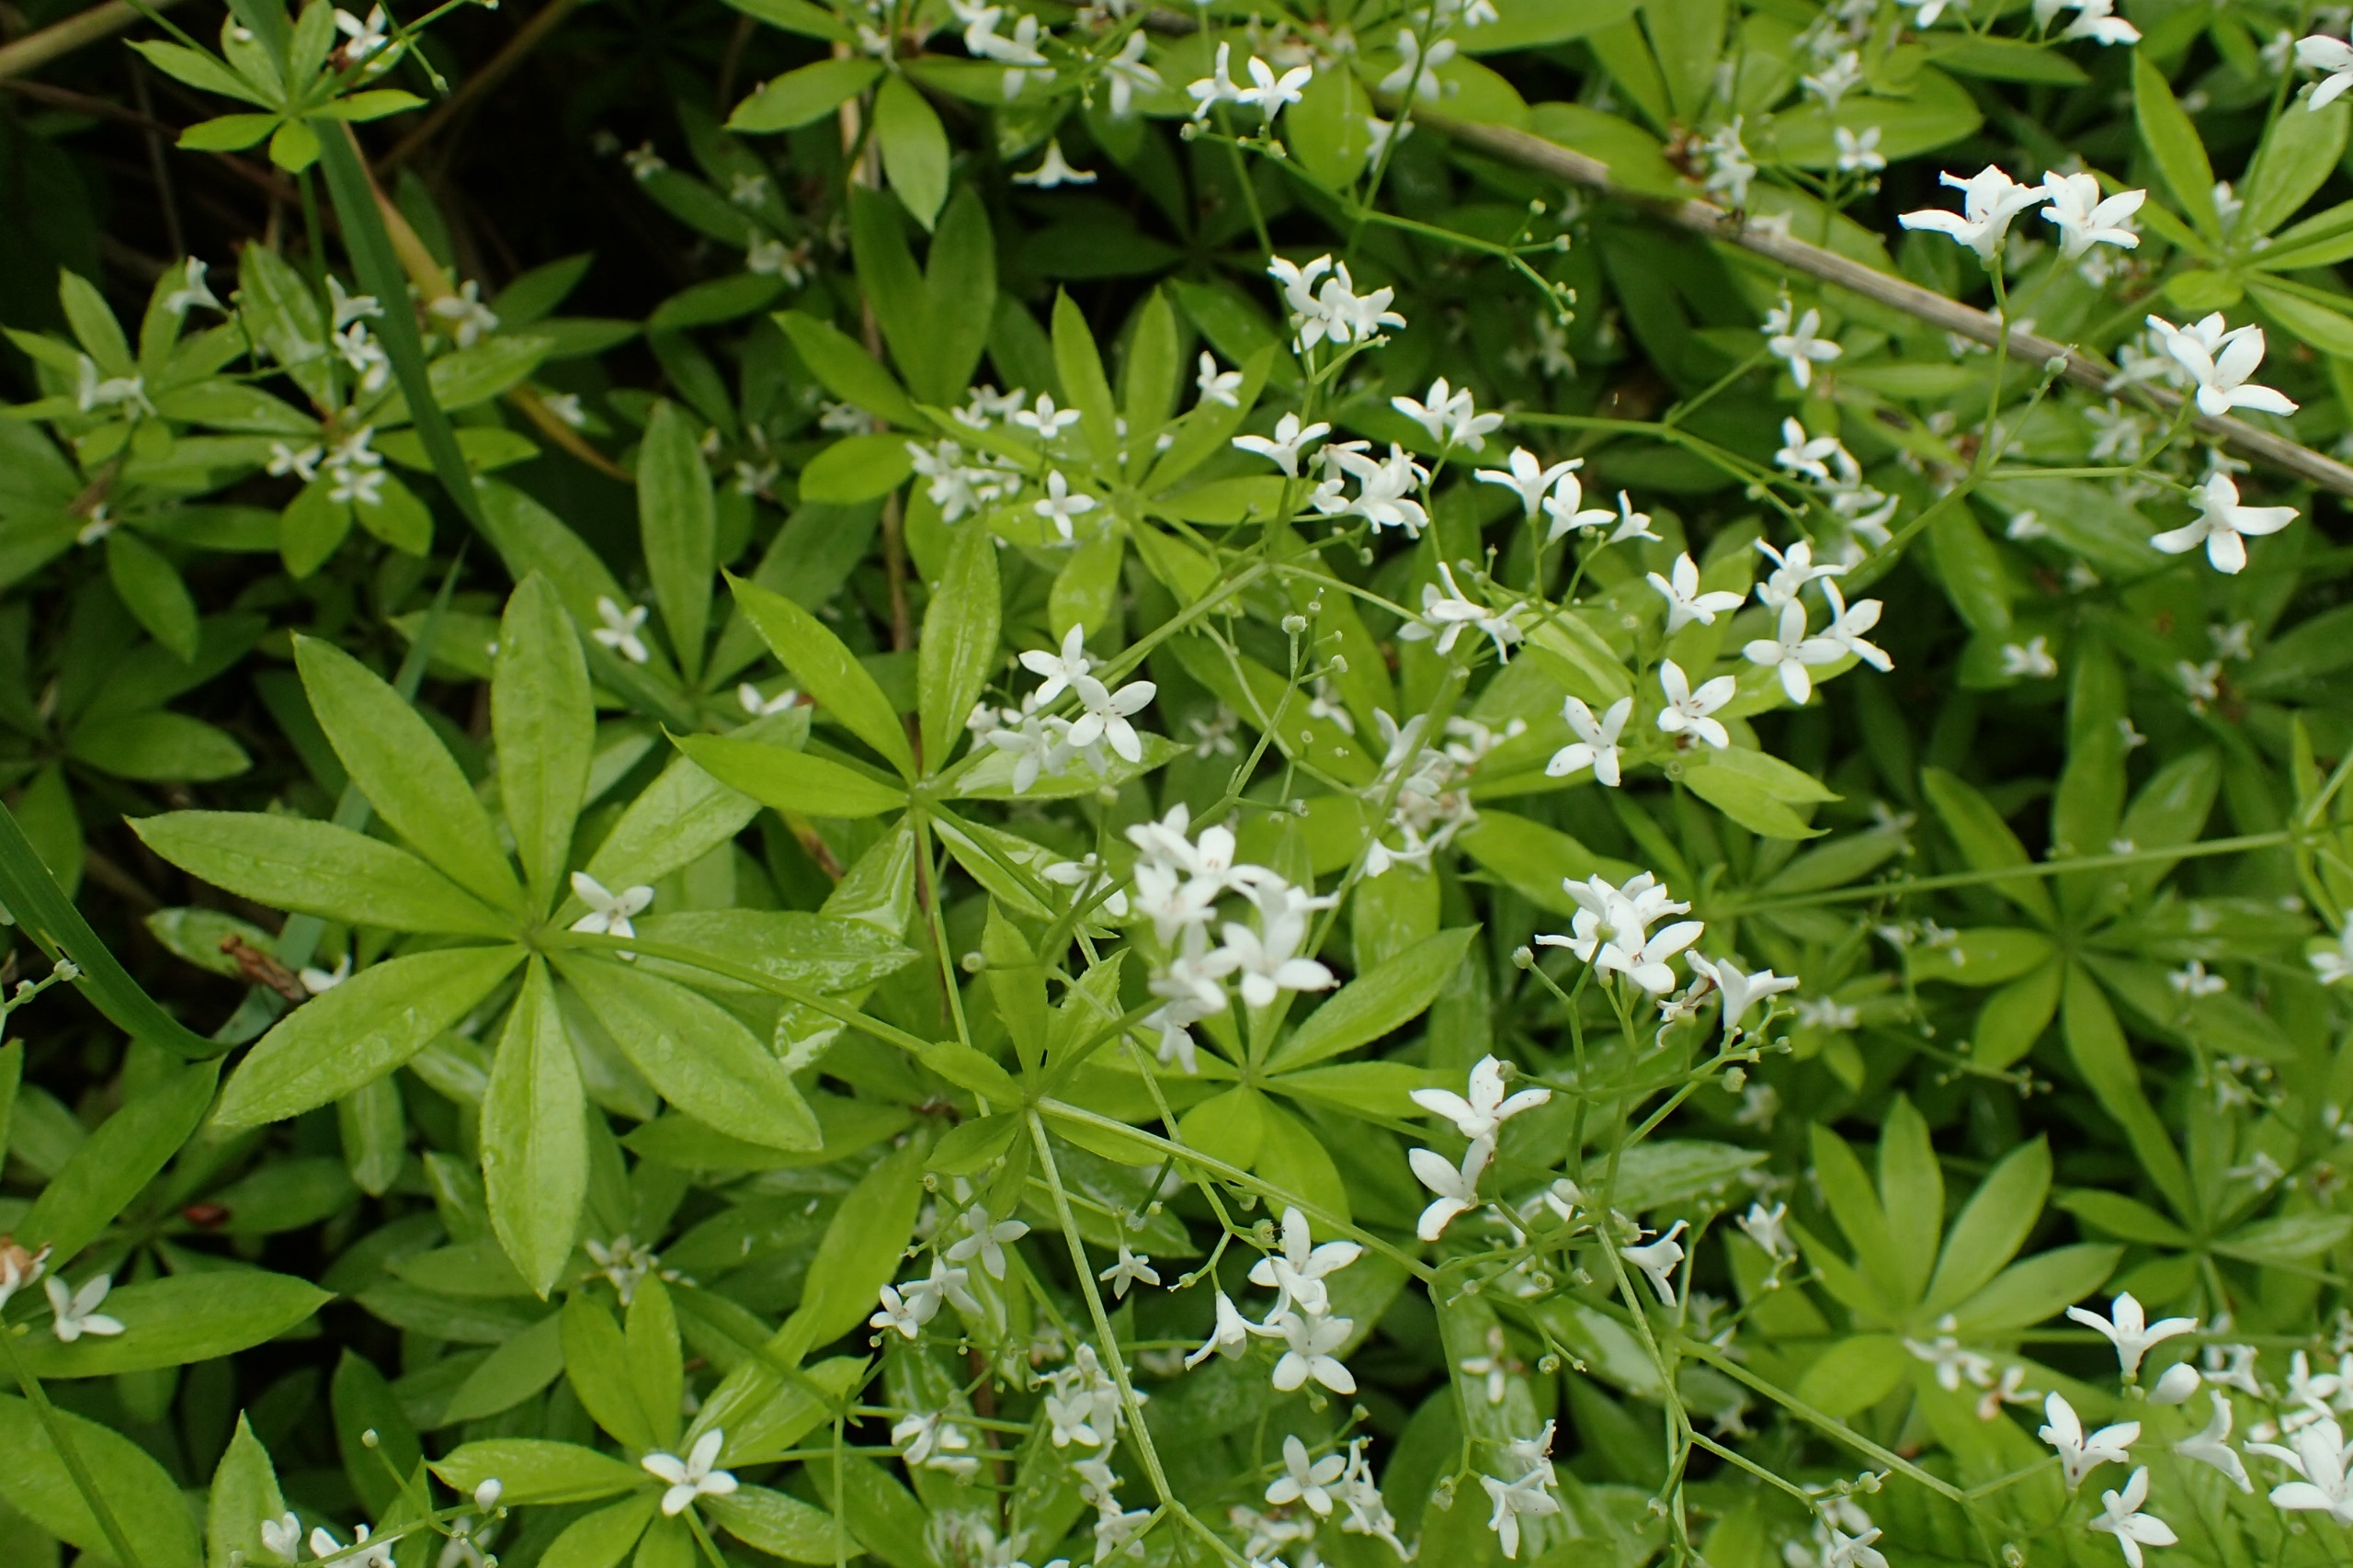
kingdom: Plantae
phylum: Tracheophyta
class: Magnoliopsida
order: Gentianales
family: Rubiaceae
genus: Galium
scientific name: Galium odoratum
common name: Skovmærke
